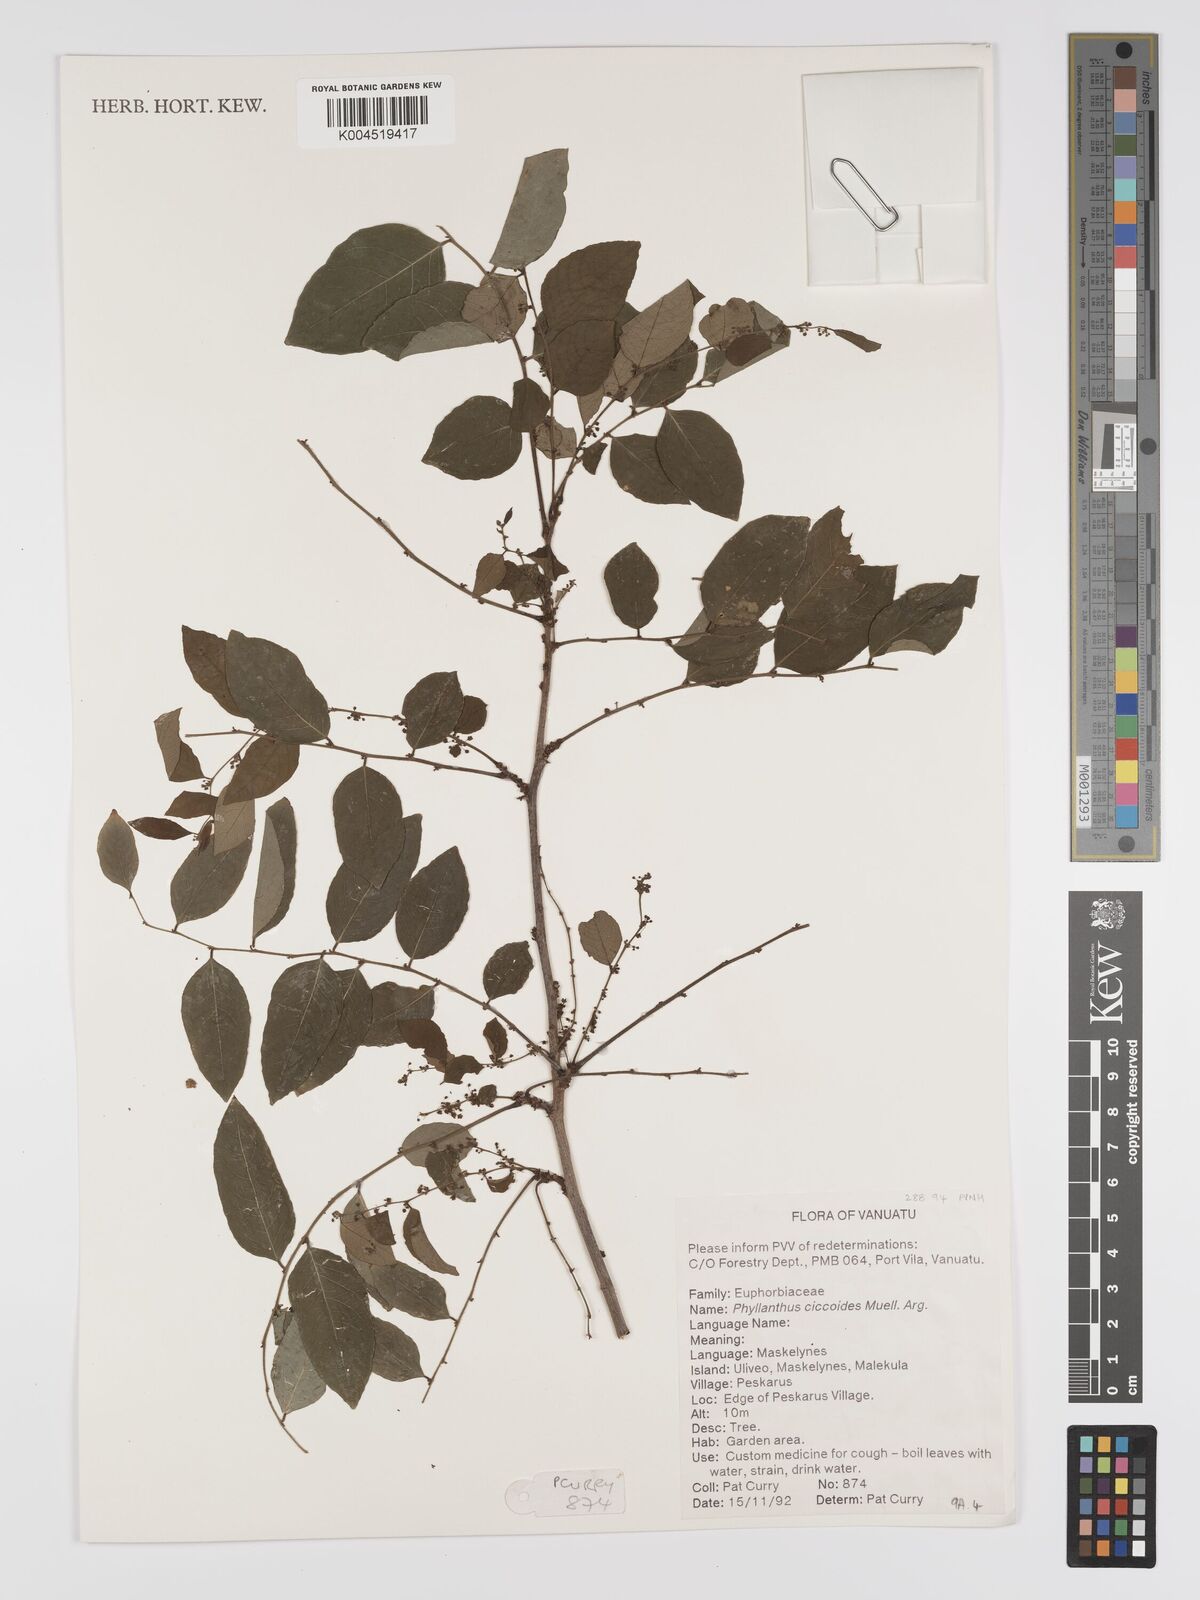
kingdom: Plantae
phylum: Tracheophyta
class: Magnoliopsida
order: Malpighiales
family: Phyllanthaceae
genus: Phyllanthus
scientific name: Phyllanthus ciccoides
